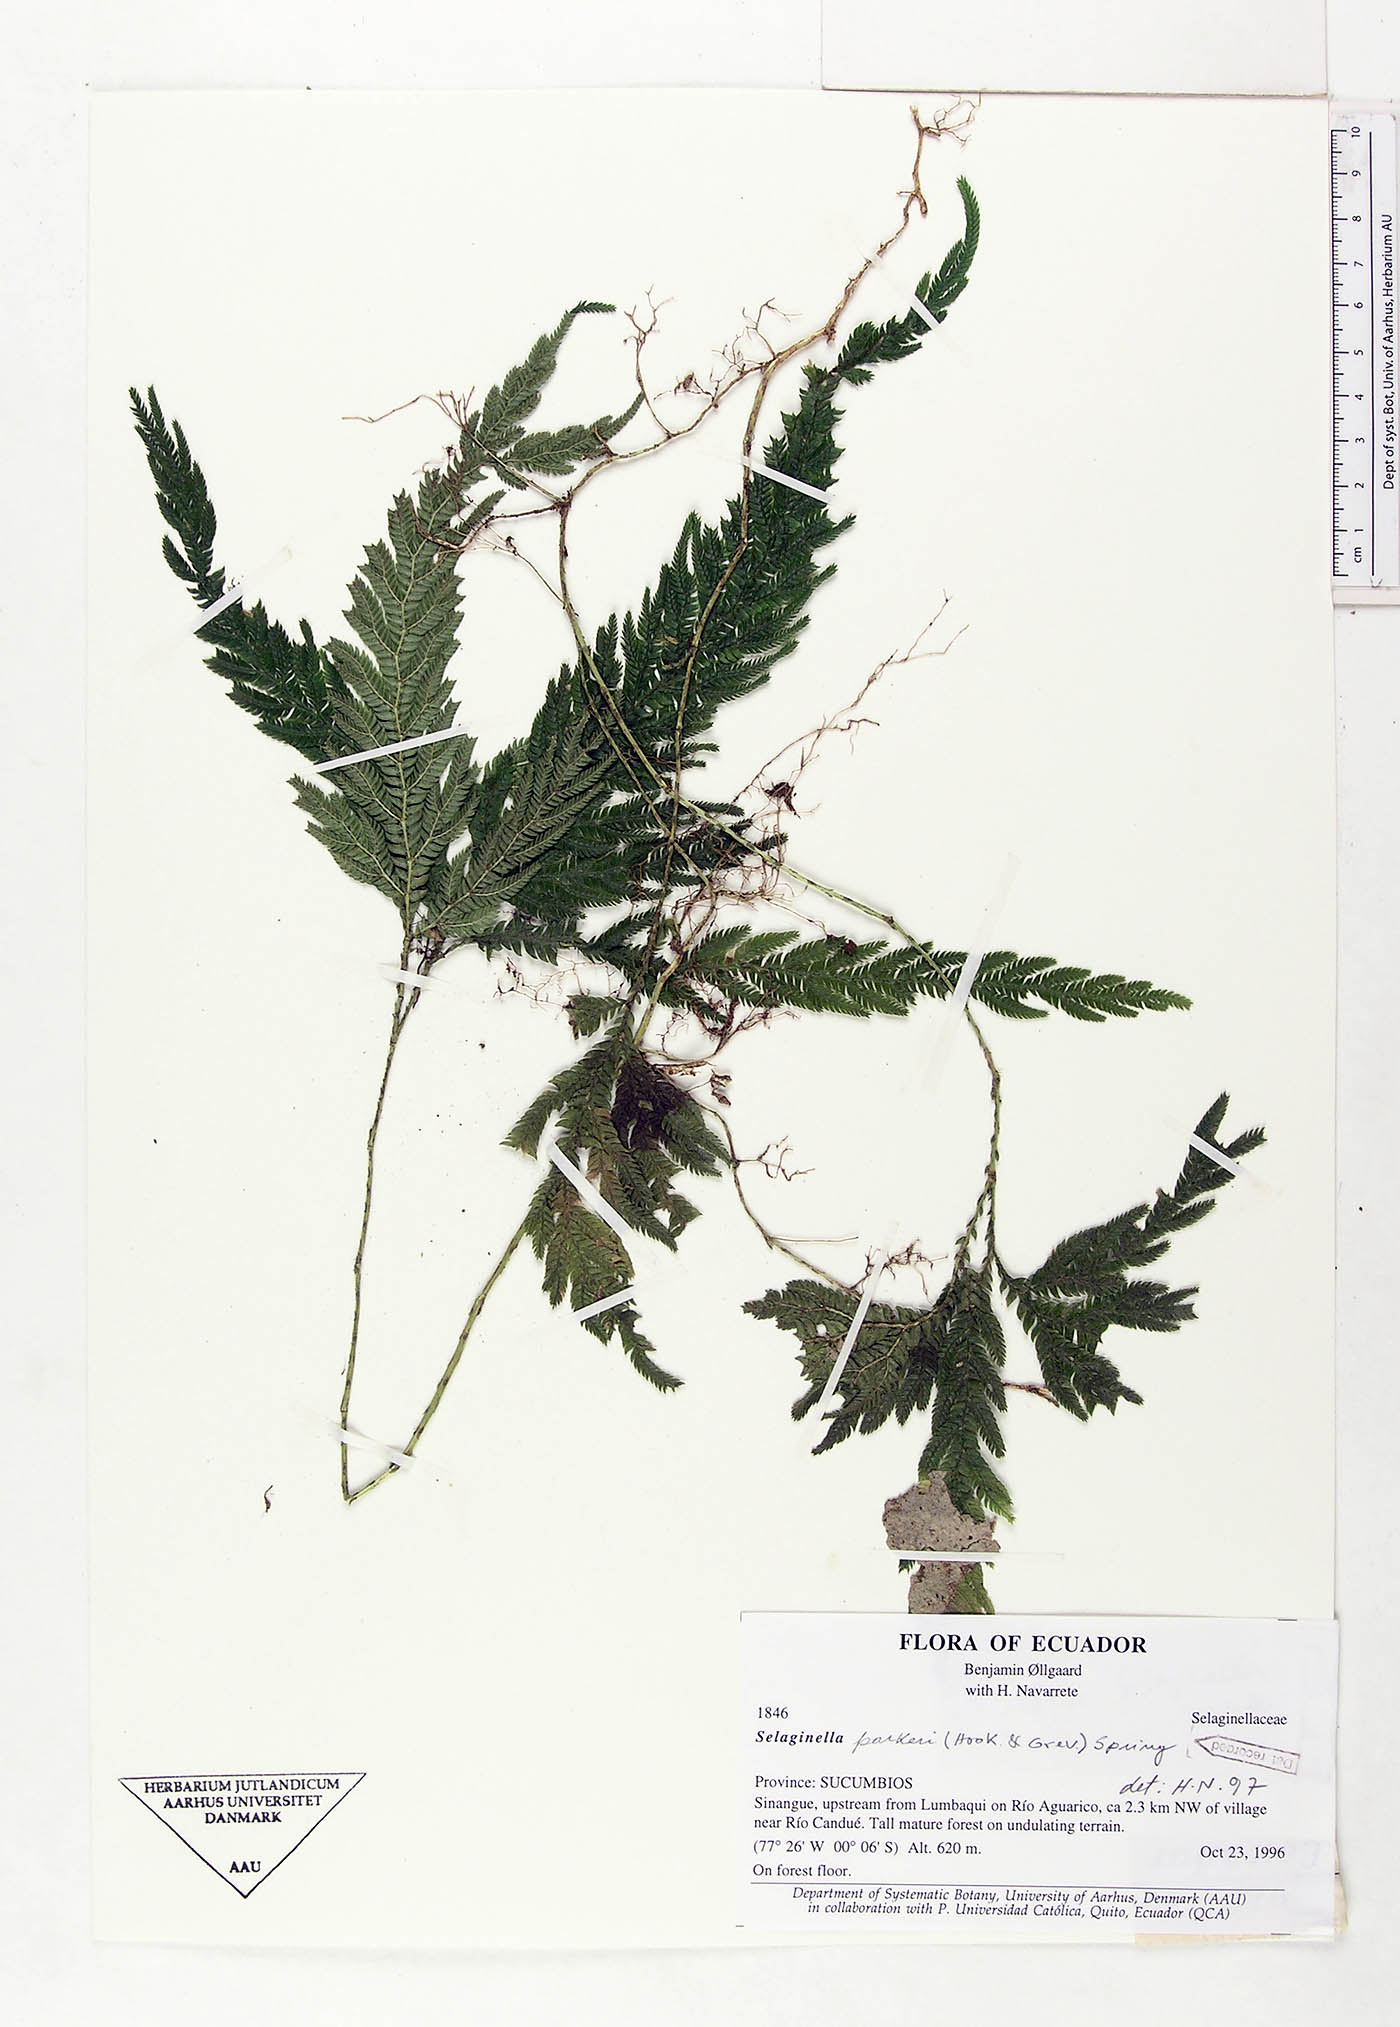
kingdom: Plantae
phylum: Tracheophyta
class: Lycopodiopsida
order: Selaginellales
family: Selaginellaceae
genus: Selaginella
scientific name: Selaginella parkeri
